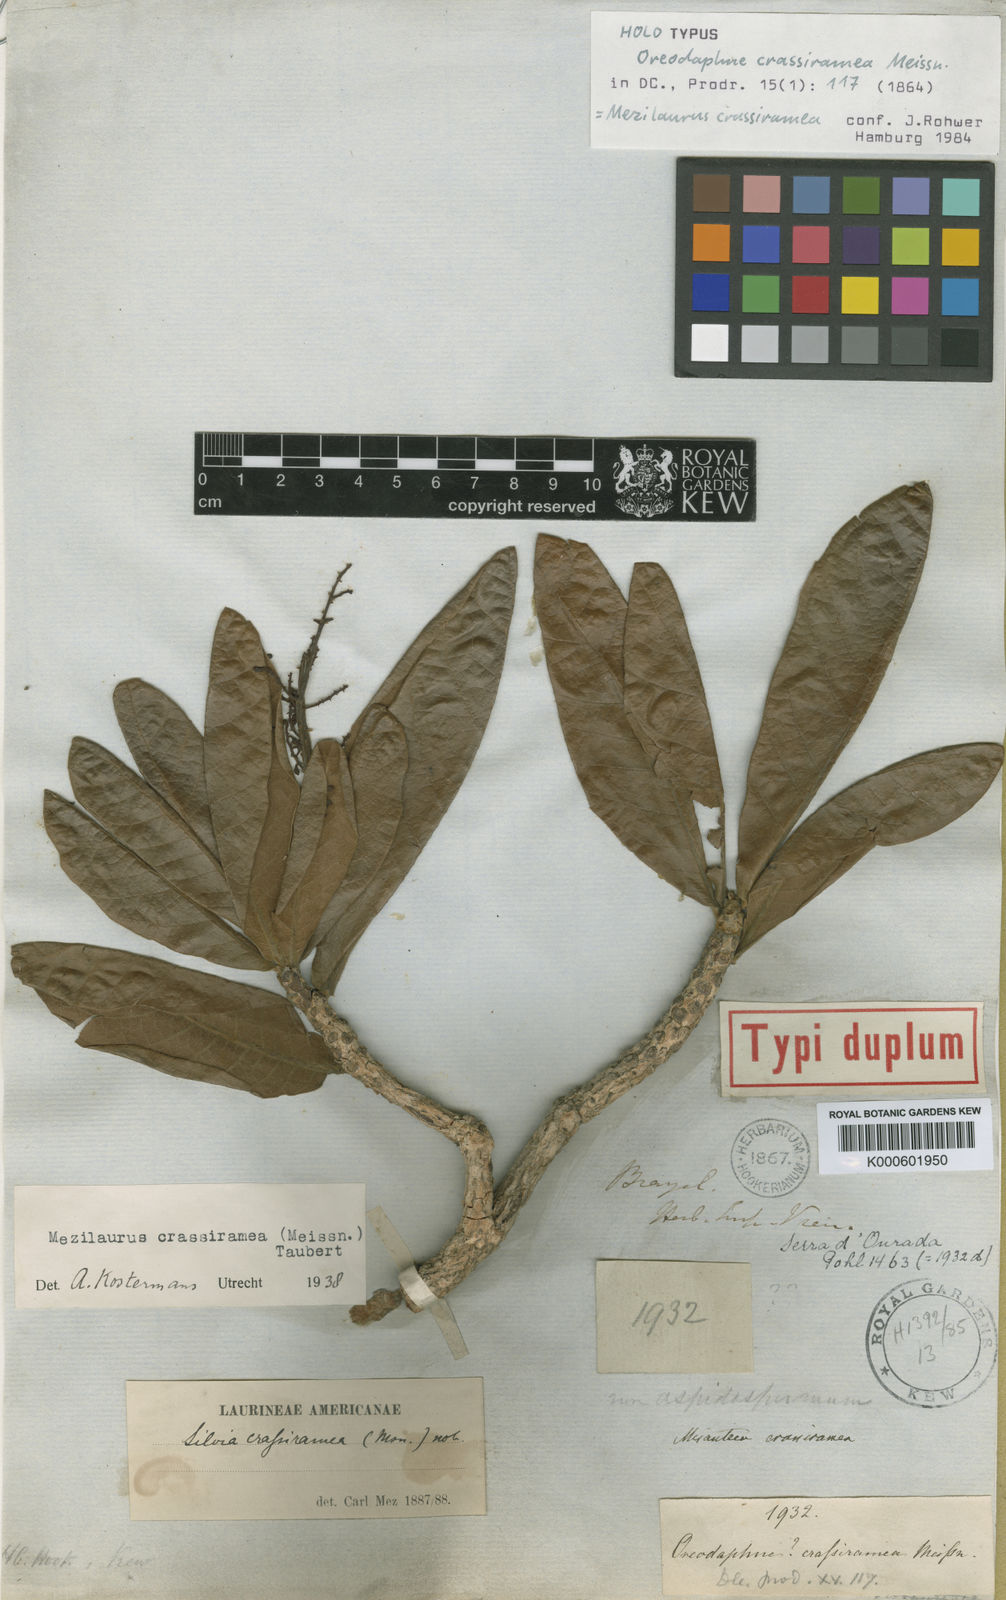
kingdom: Plantae
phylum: Tracheophyta
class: Magnoliopsida
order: Laurales
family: Lauraceae
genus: Mezilaurus
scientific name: Mezilaurus crassiramea
